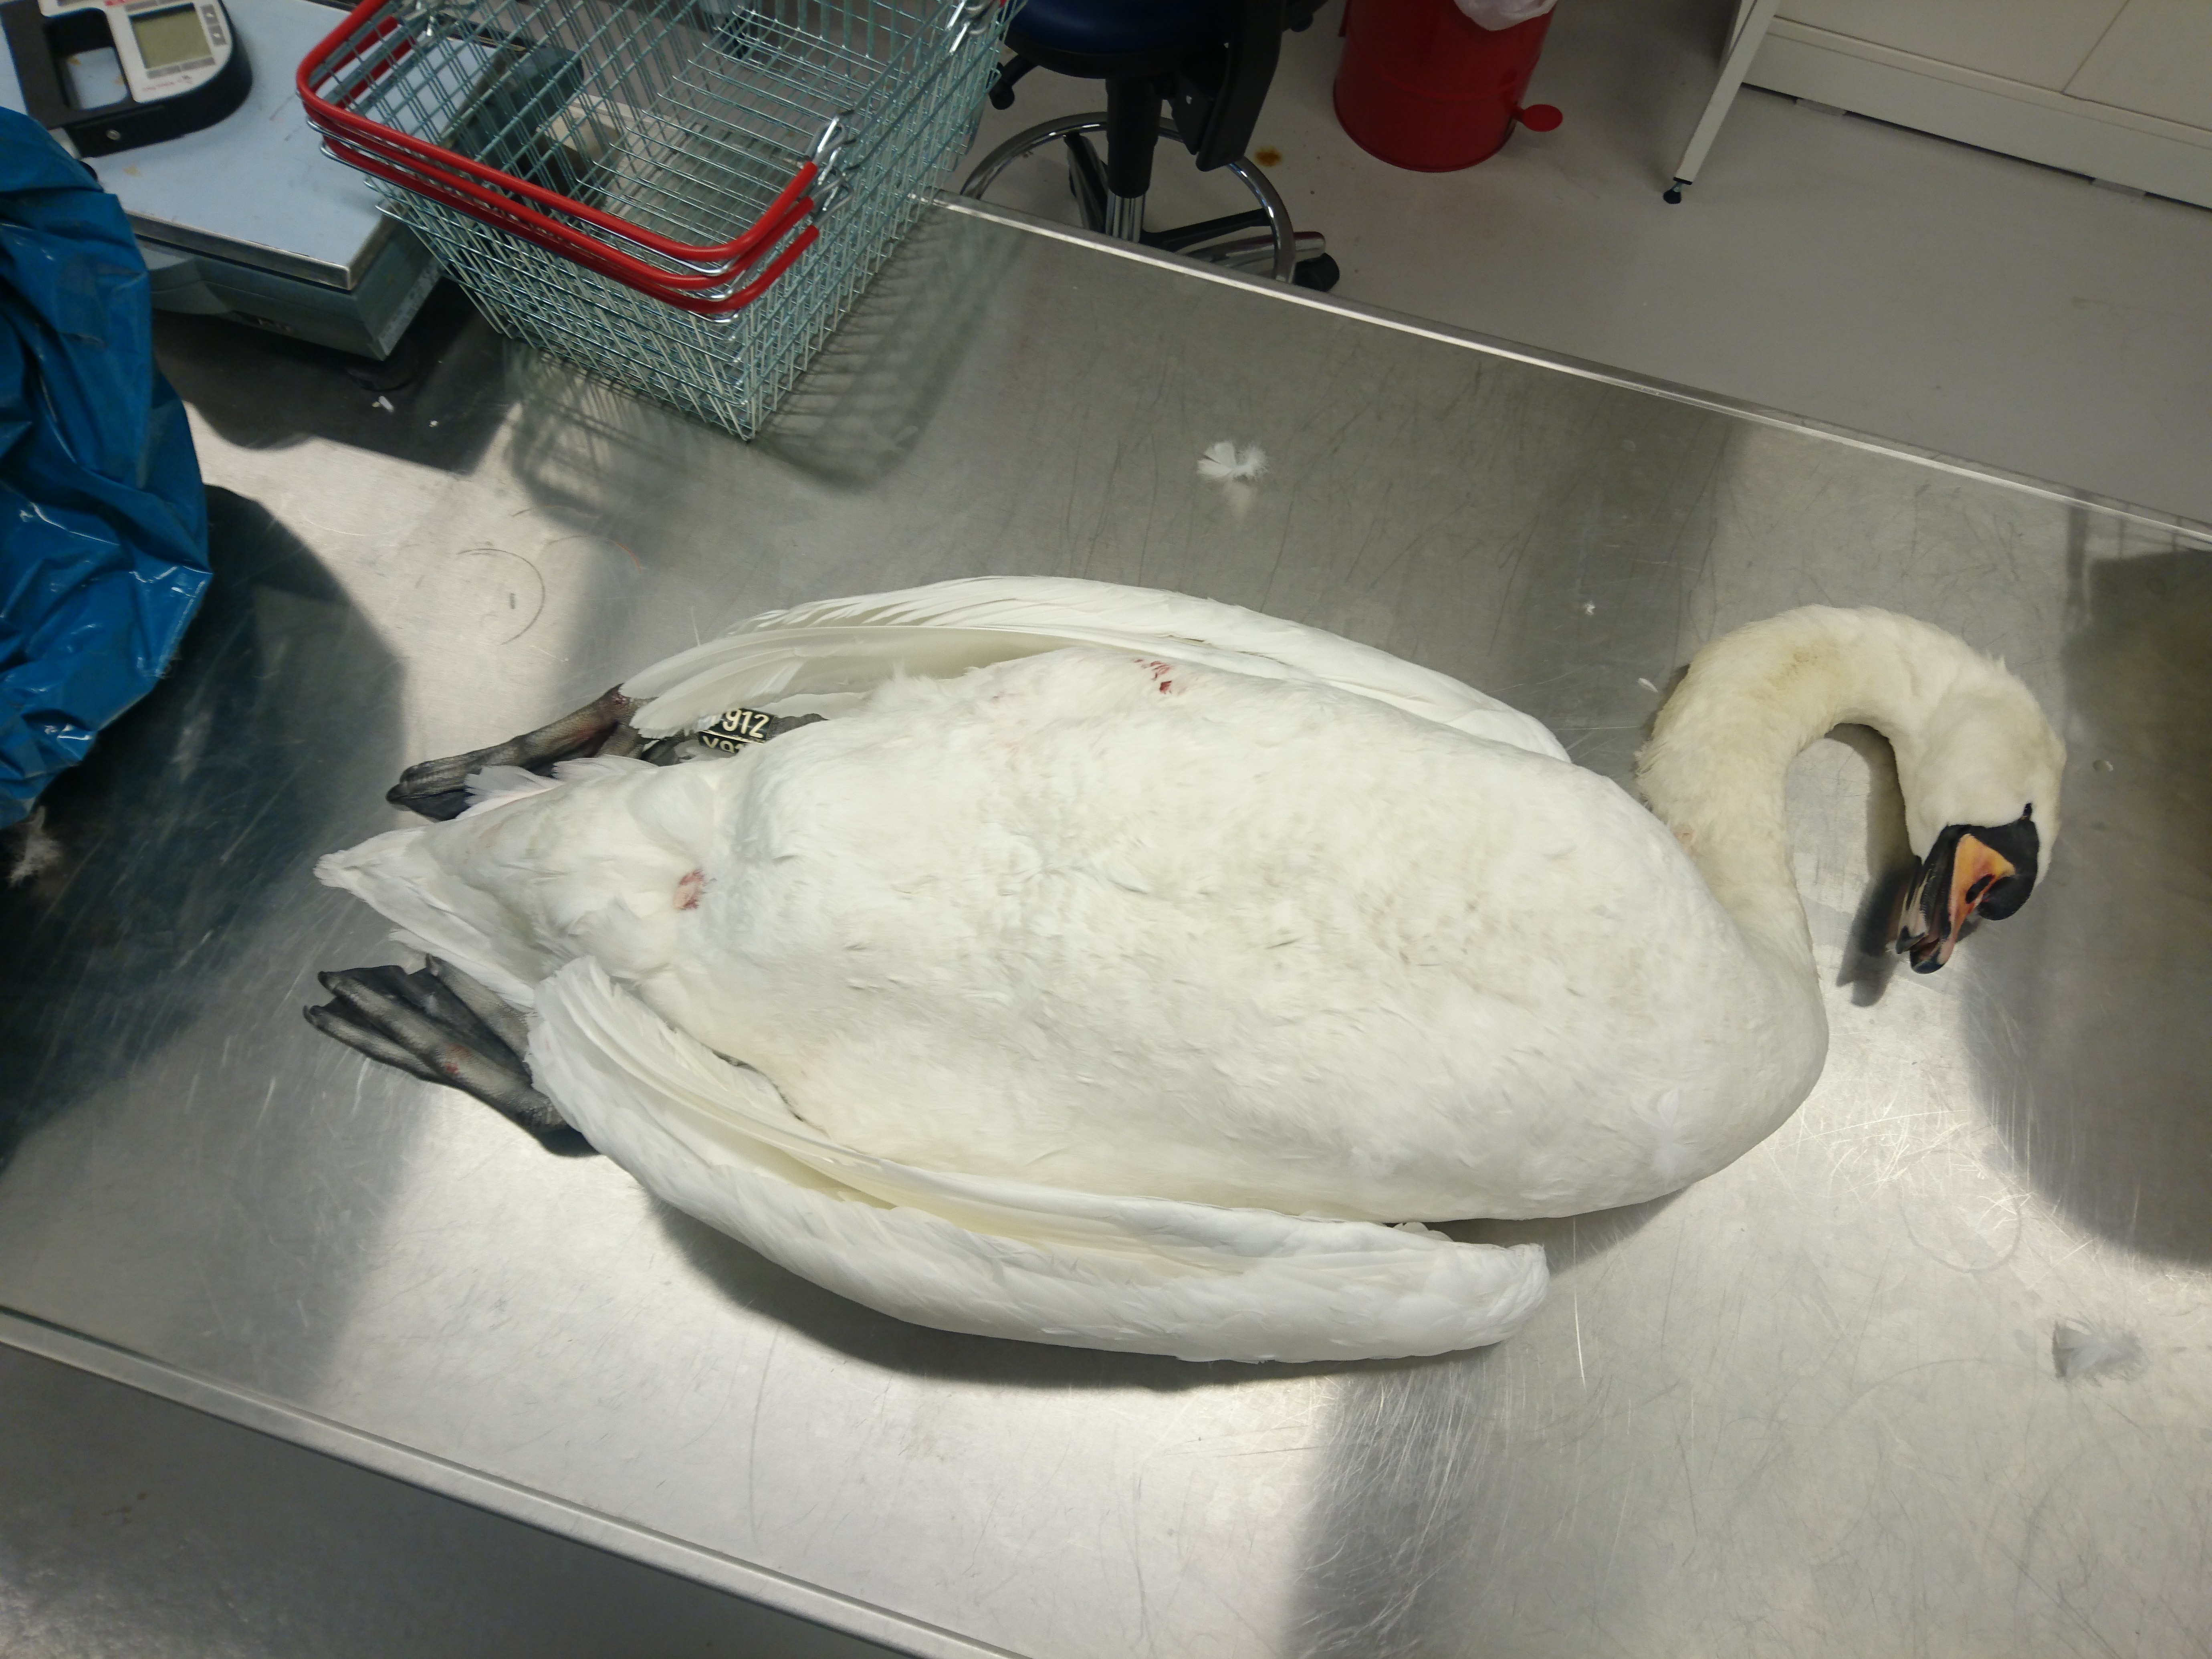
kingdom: Animalia
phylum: Chordata
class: Aves
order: Anseriformes
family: Anatidae
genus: Cygnus
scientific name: Cygnus olor
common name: Mute swan
